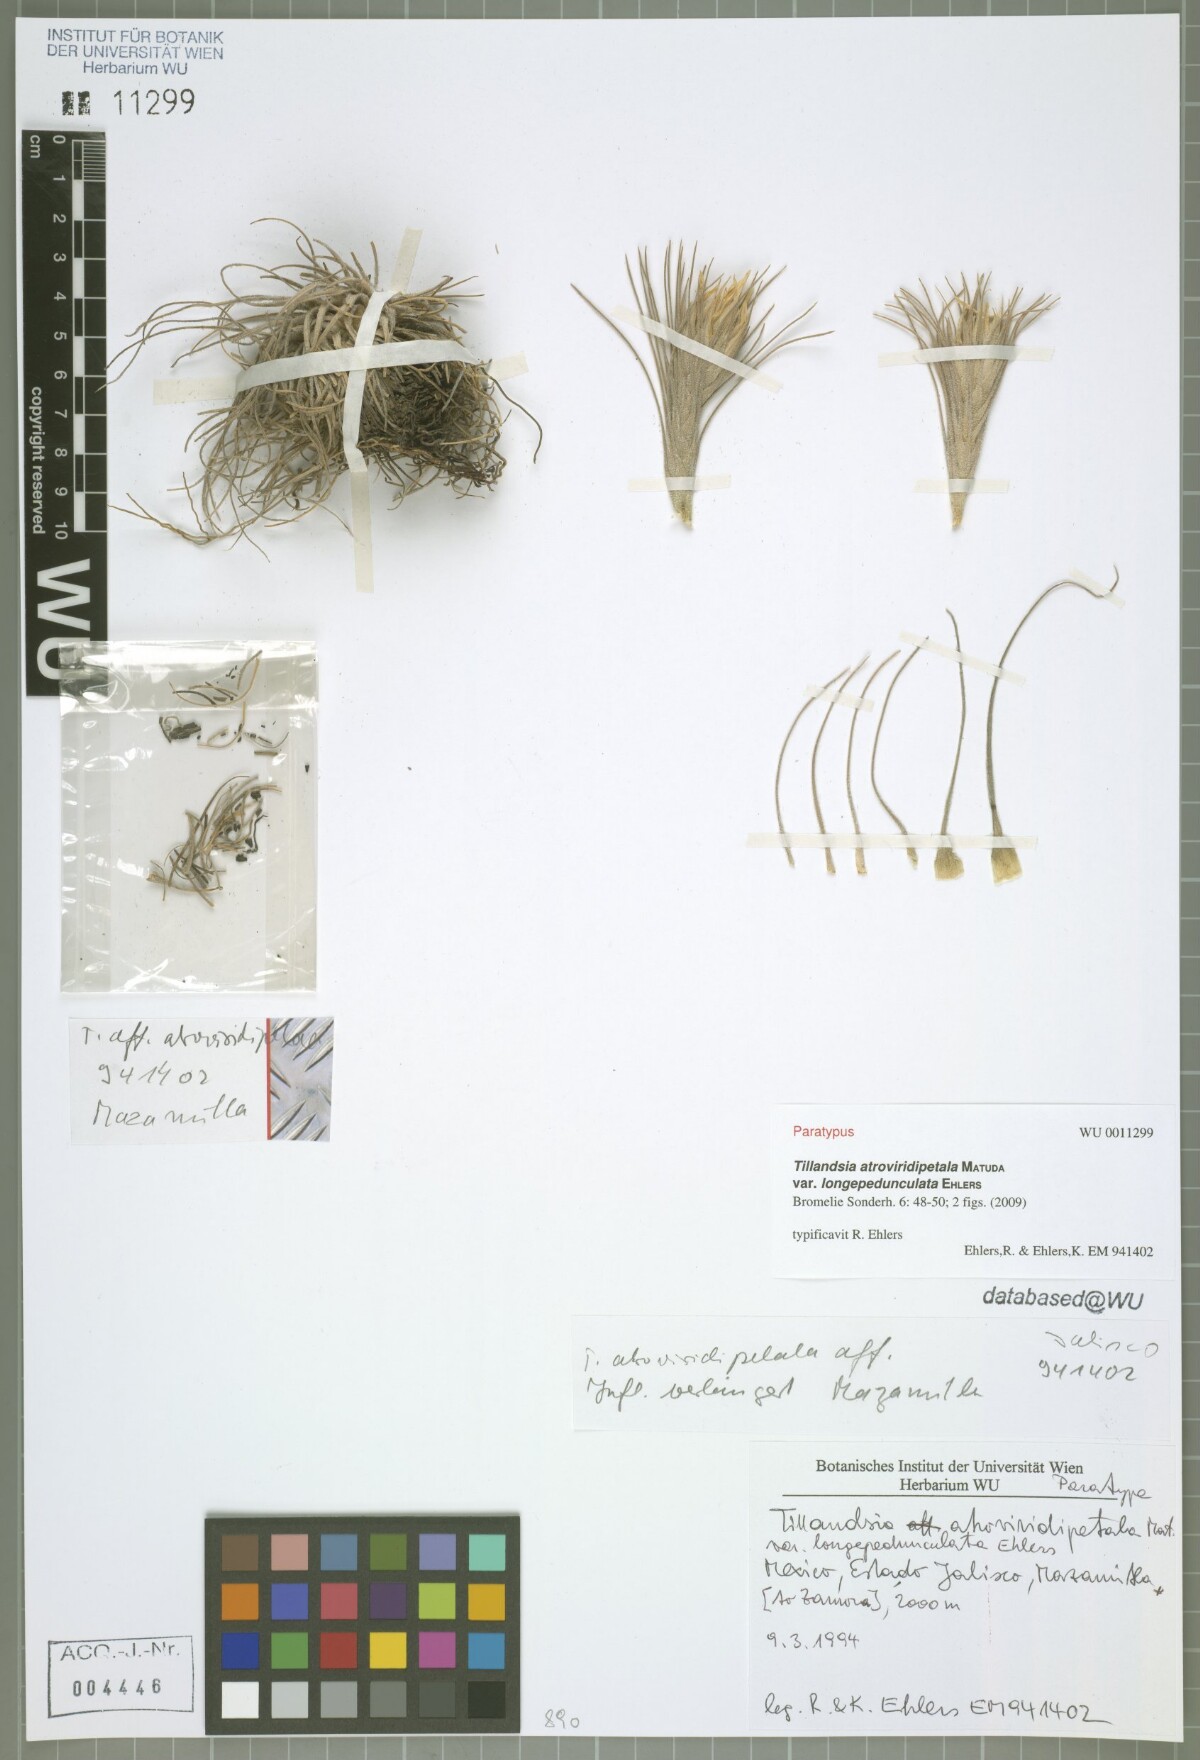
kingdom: Plantae
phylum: Tracheophyta
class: Liliopsida
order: Poales
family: Bromeliaceae
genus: Tillandsia
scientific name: Tillandsia atroviridipetala
